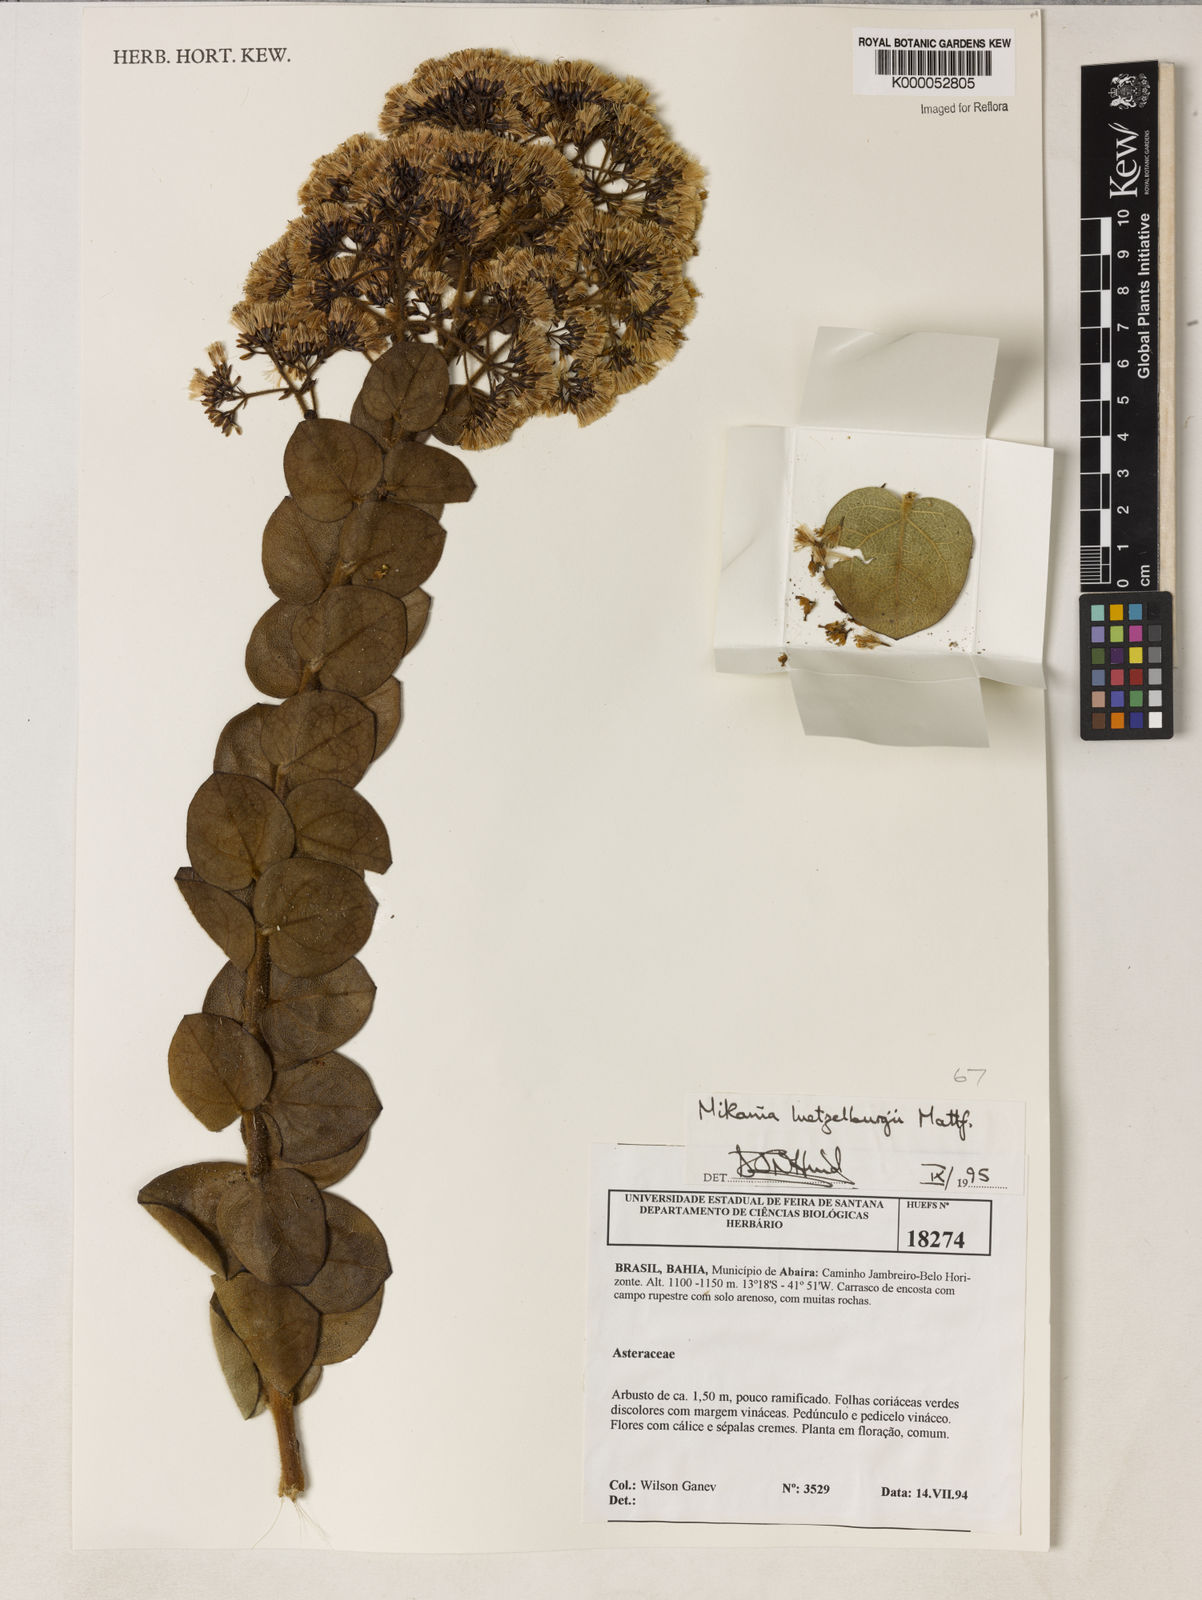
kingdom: Plantae
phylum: Tracheophyta
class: Magnoliopsida
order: Asterales
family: Asteraceae
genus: Mikania
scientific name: Mikania luetzelburgii
